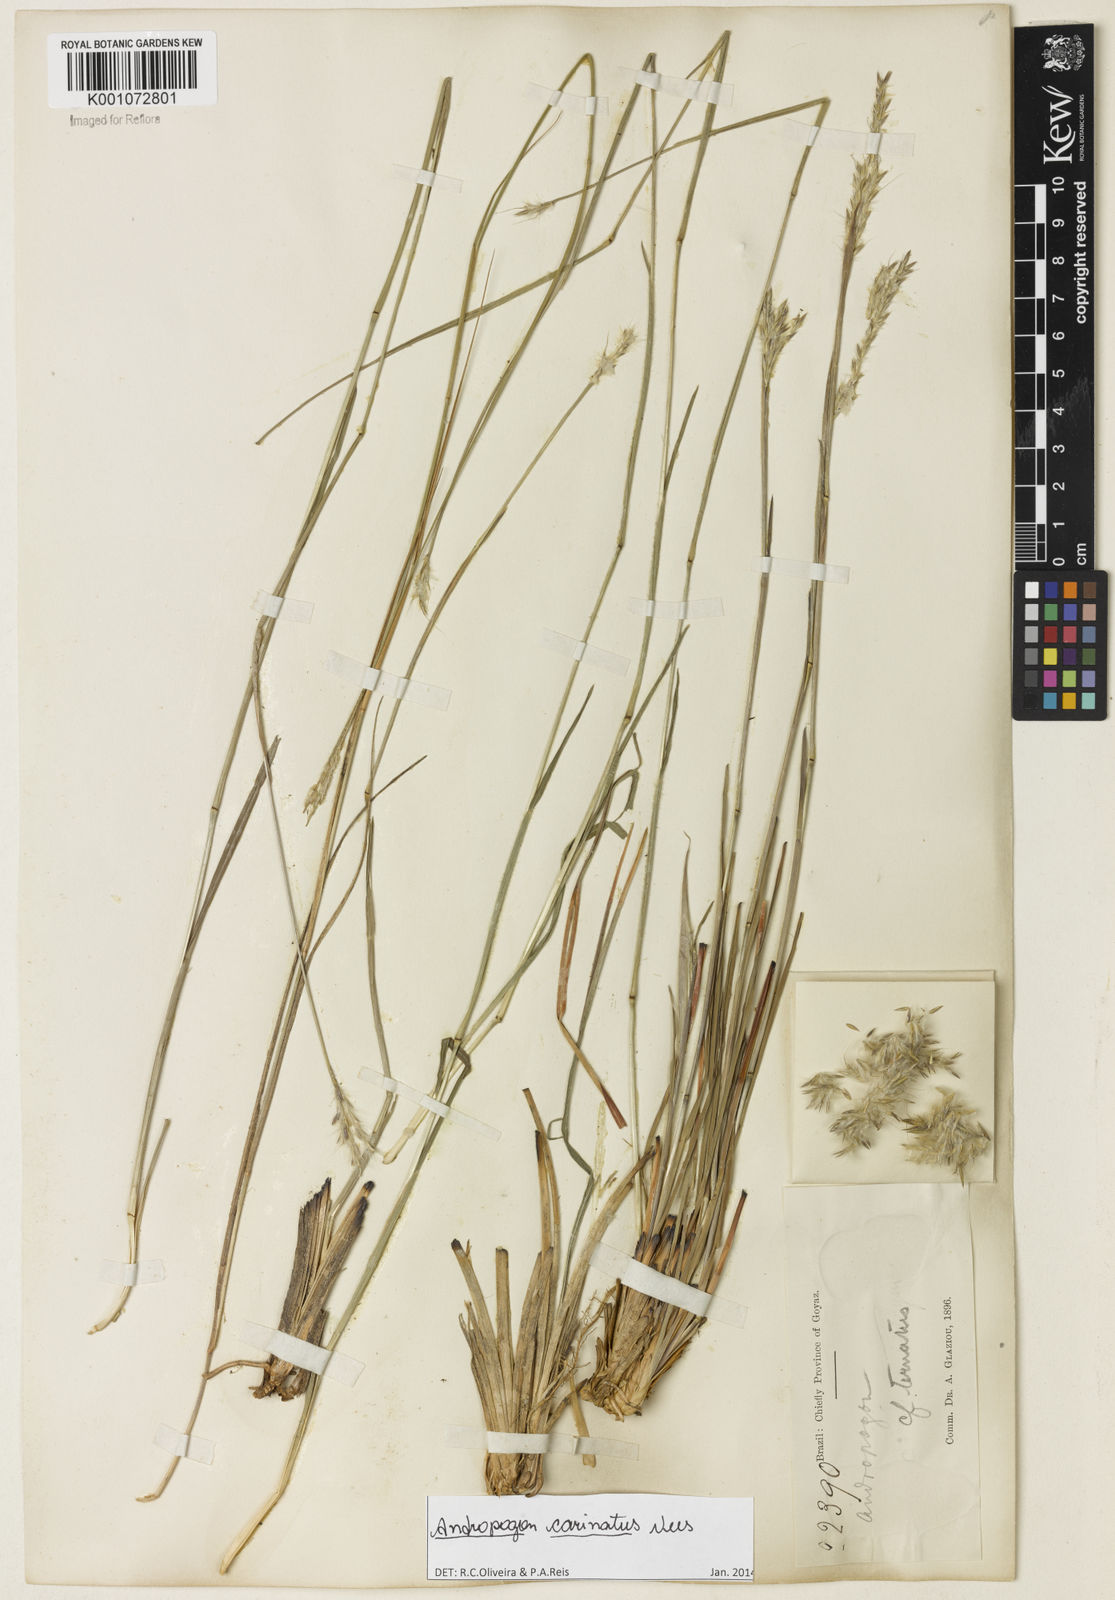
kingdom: Plantae
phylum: Tracheophyta
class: Liliopsida
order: Poales
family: Poaceae
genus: Andropogon
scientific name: Andropogon carinatus
